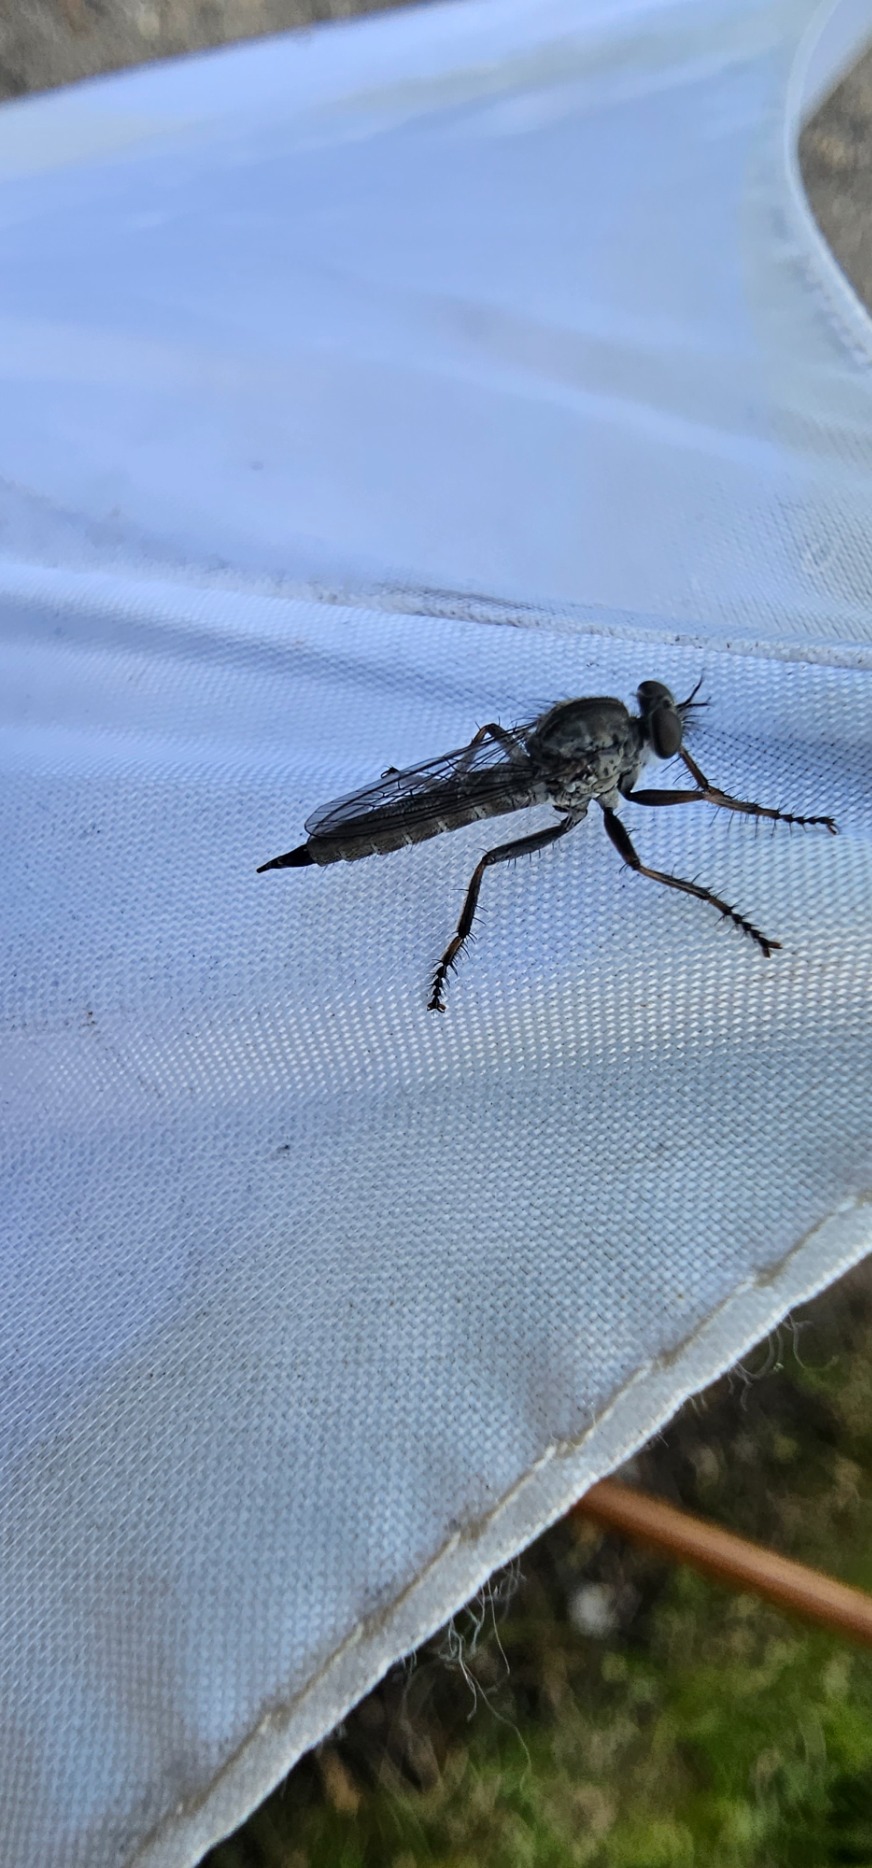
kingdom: Animalia
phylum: Arthropoda
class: Insecta
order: Diptera
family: Asilidae
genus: Machimus
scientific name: Machimus atricapillus
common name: Sort hårrovflue
